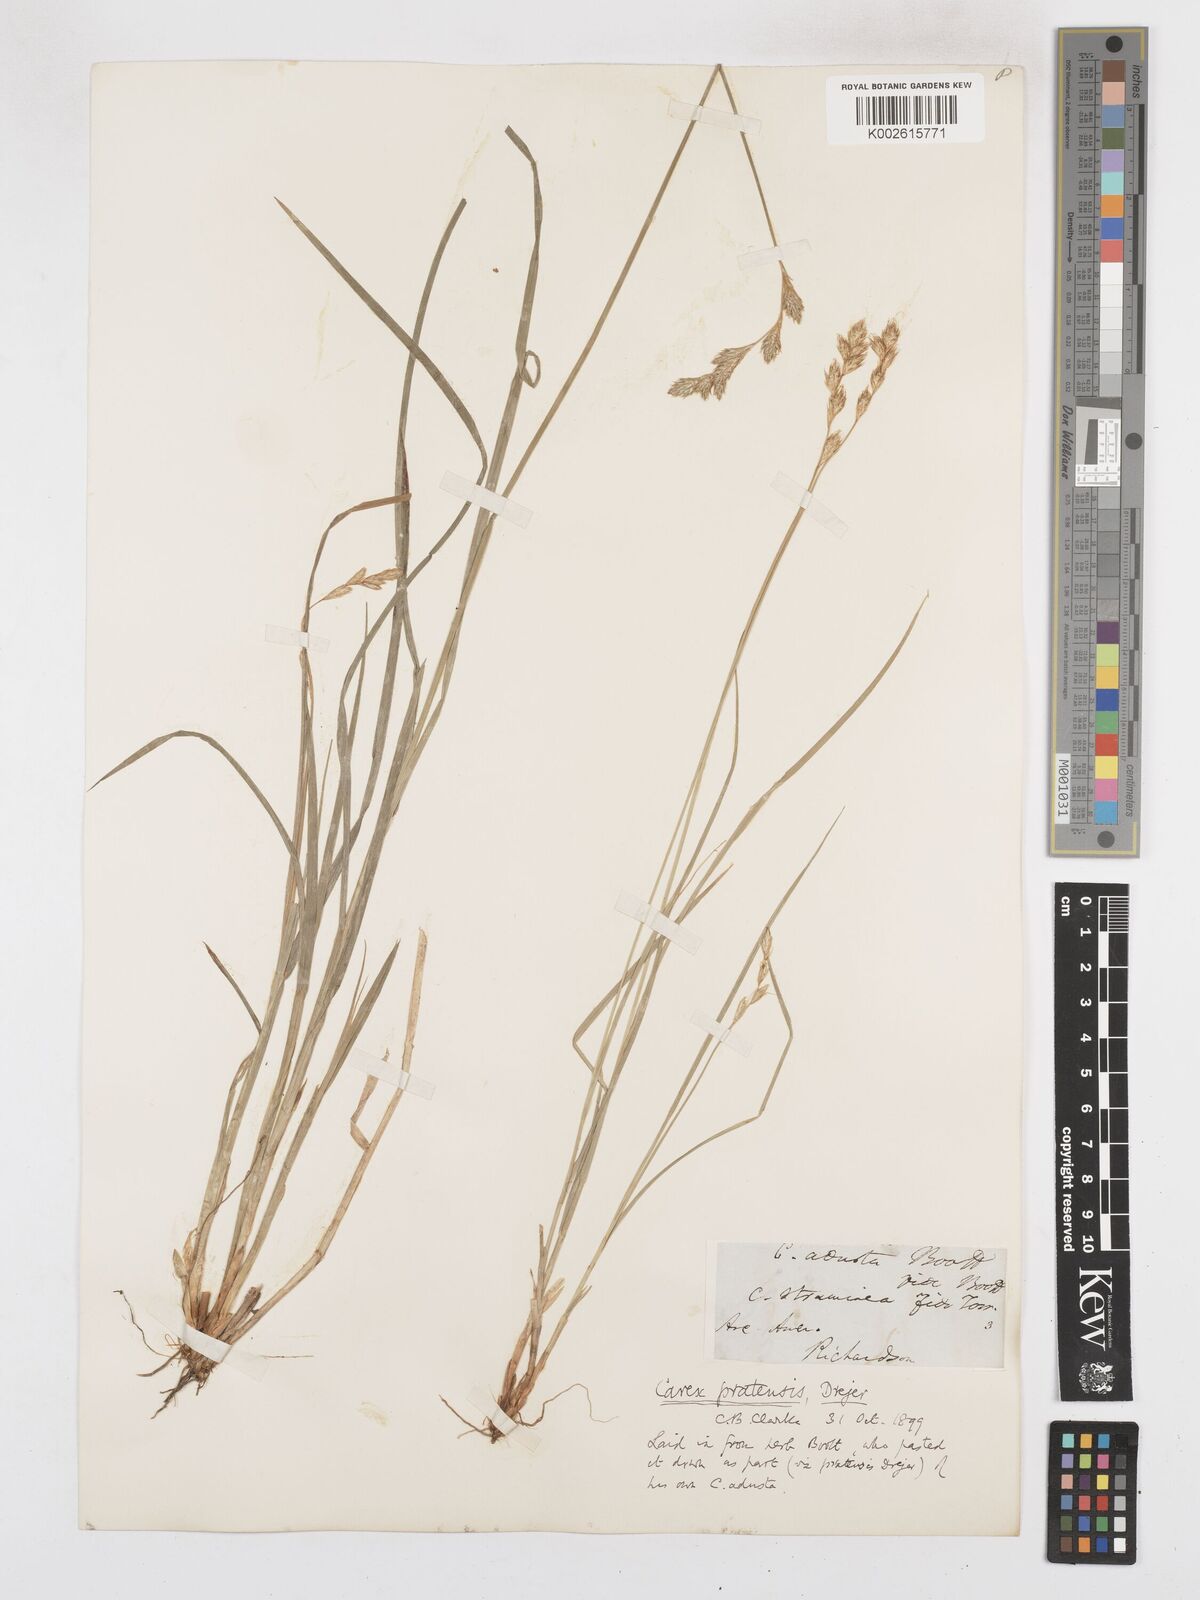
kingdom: Plantae
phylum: Tracheophyta
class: Liliopsida
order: Poales
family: Cyperaceae
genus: Carex
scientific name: Carex praticola
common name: Large-fruited oval sedge
